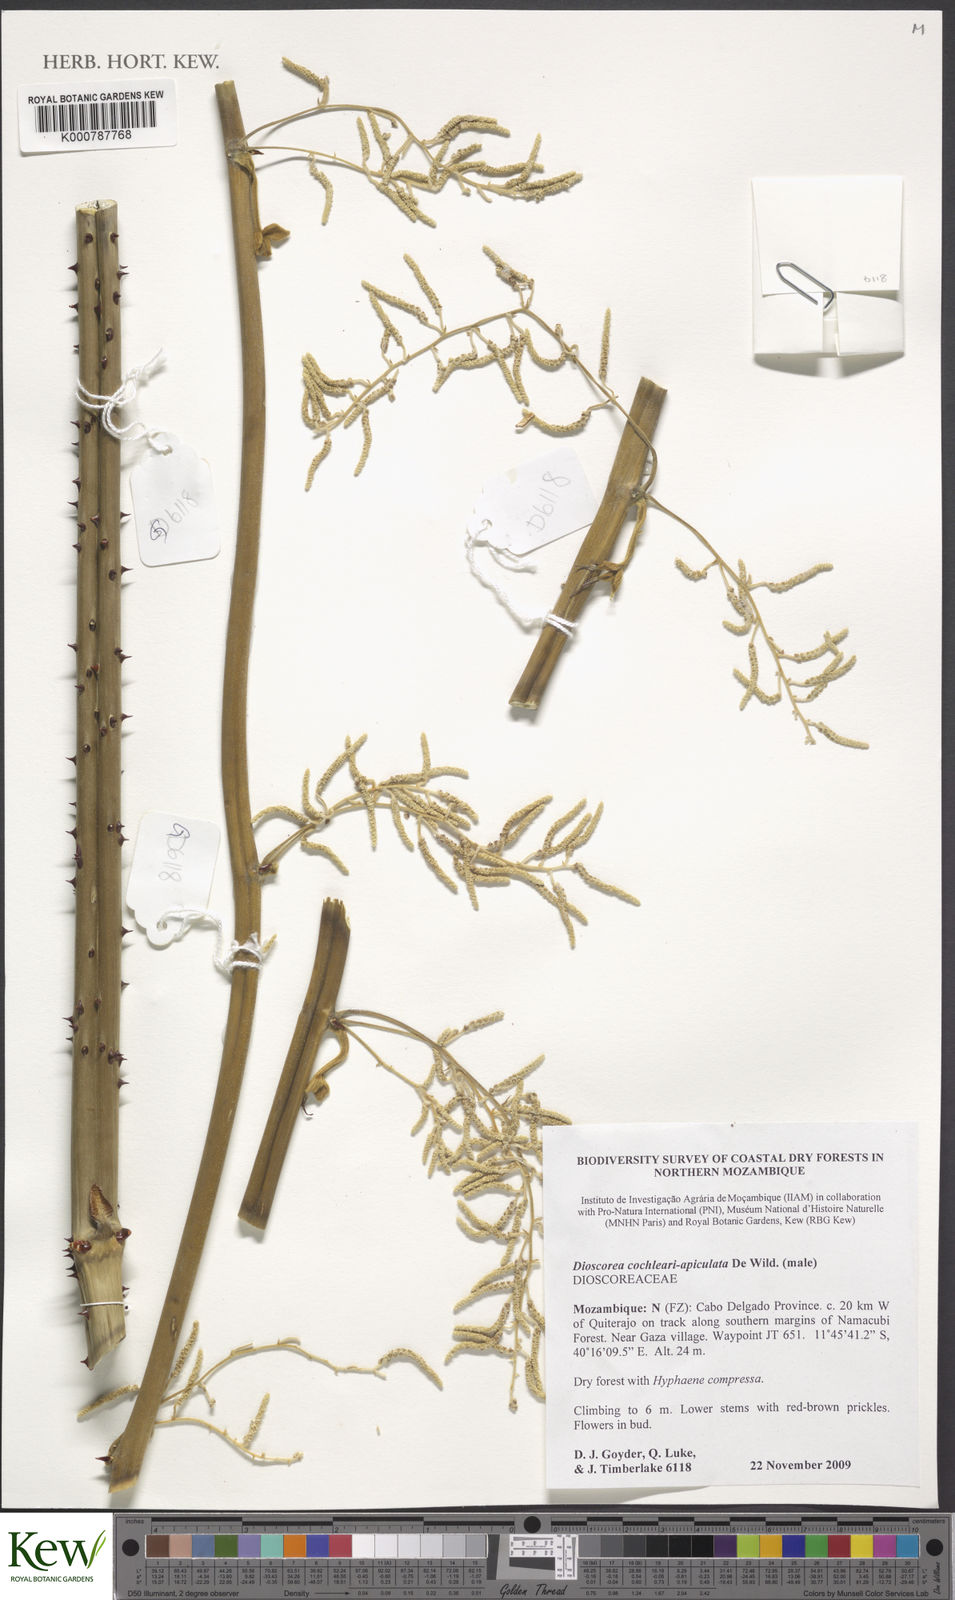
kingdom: Plantae
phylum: Tracheophyta
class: Liliopsida
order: Dioscoreales
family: Dioscoreaceae
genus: Dioscorea
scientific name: Dioscorea cochleariapiculata
